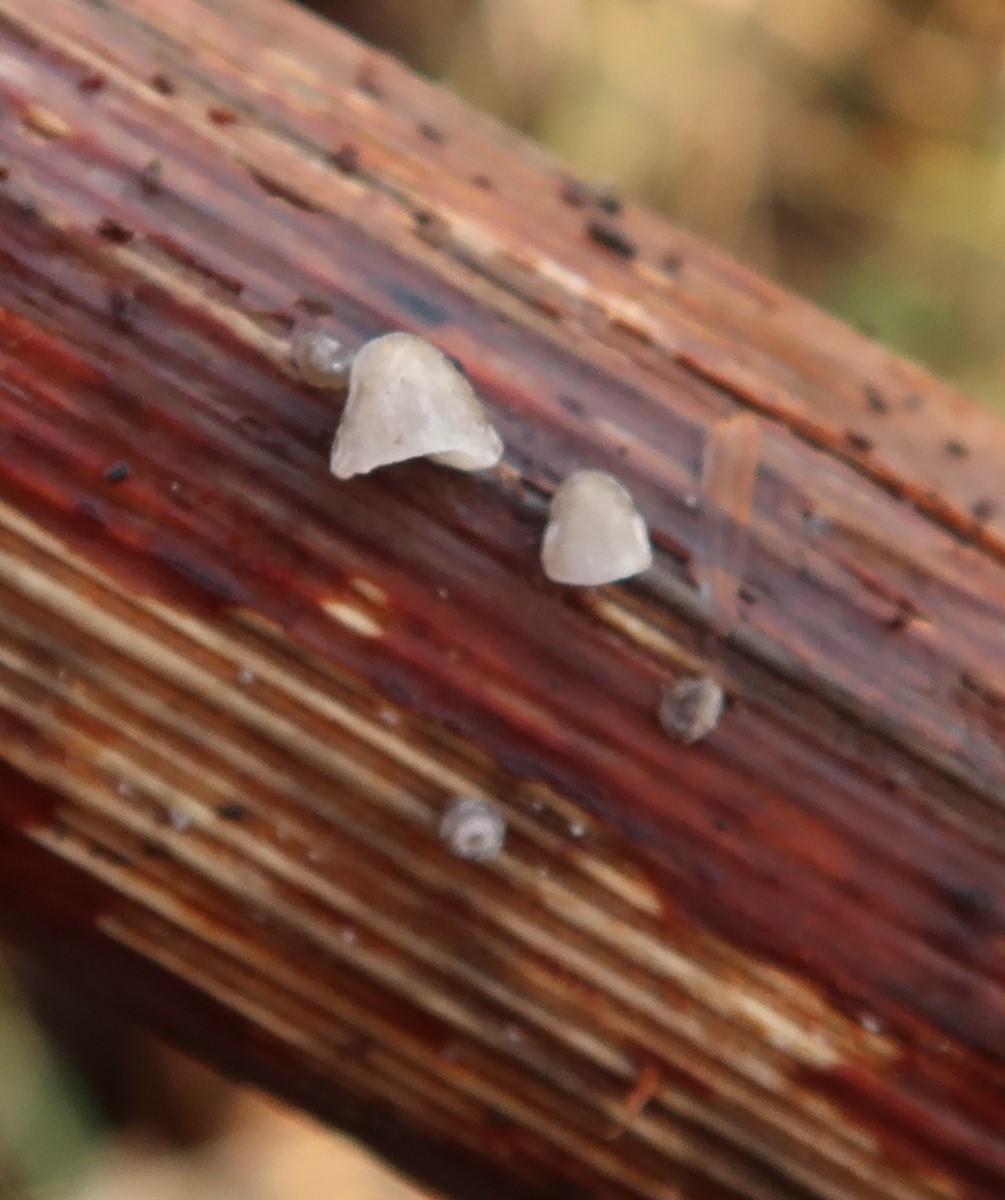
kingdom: Fungi
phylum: Basidiomycota
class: Agaricomycetes
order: Agaricales
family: Pleurotaceae
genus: Hohenbuehelia
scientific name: Hohenbuehelia cyphelliformis
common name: urte-filthat
